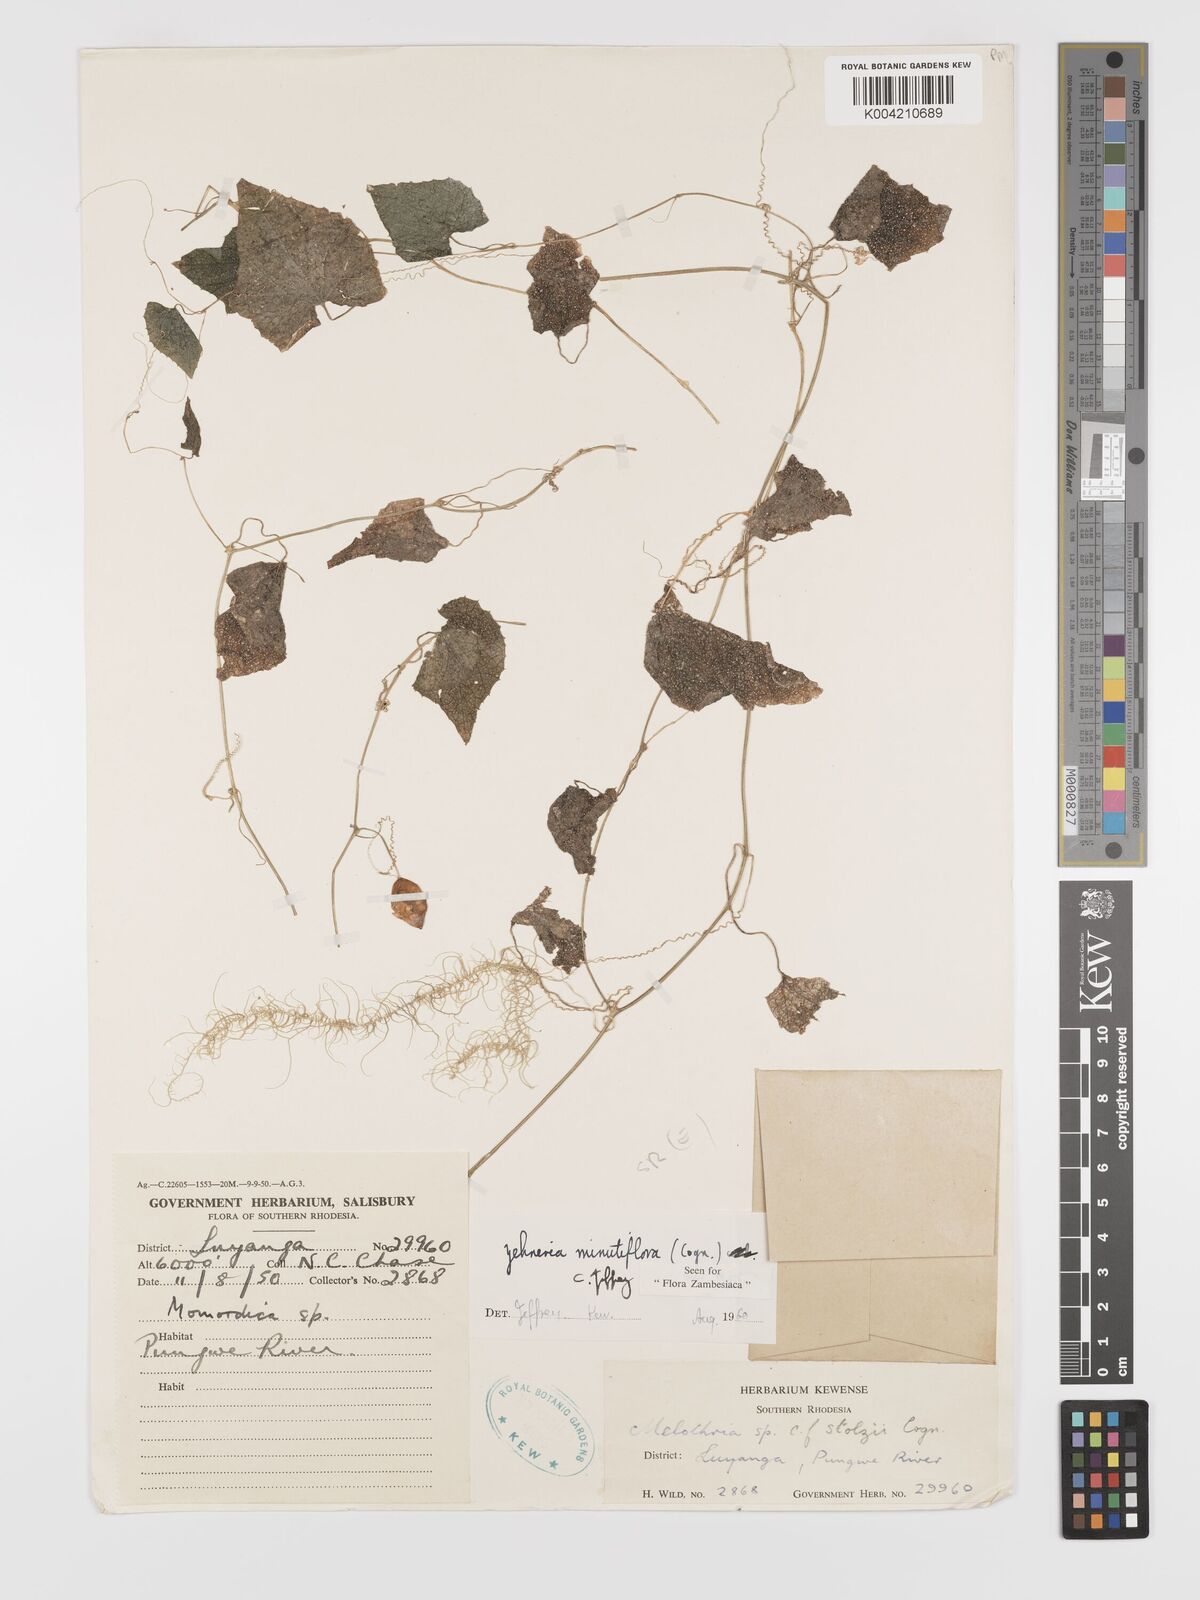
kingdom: Plantae
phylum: Tracheophyta
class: Magnoliopsida
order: Cucurbitales
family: Cucurbitaceae
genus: Zehneria
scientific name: Zehneria minutiflora
